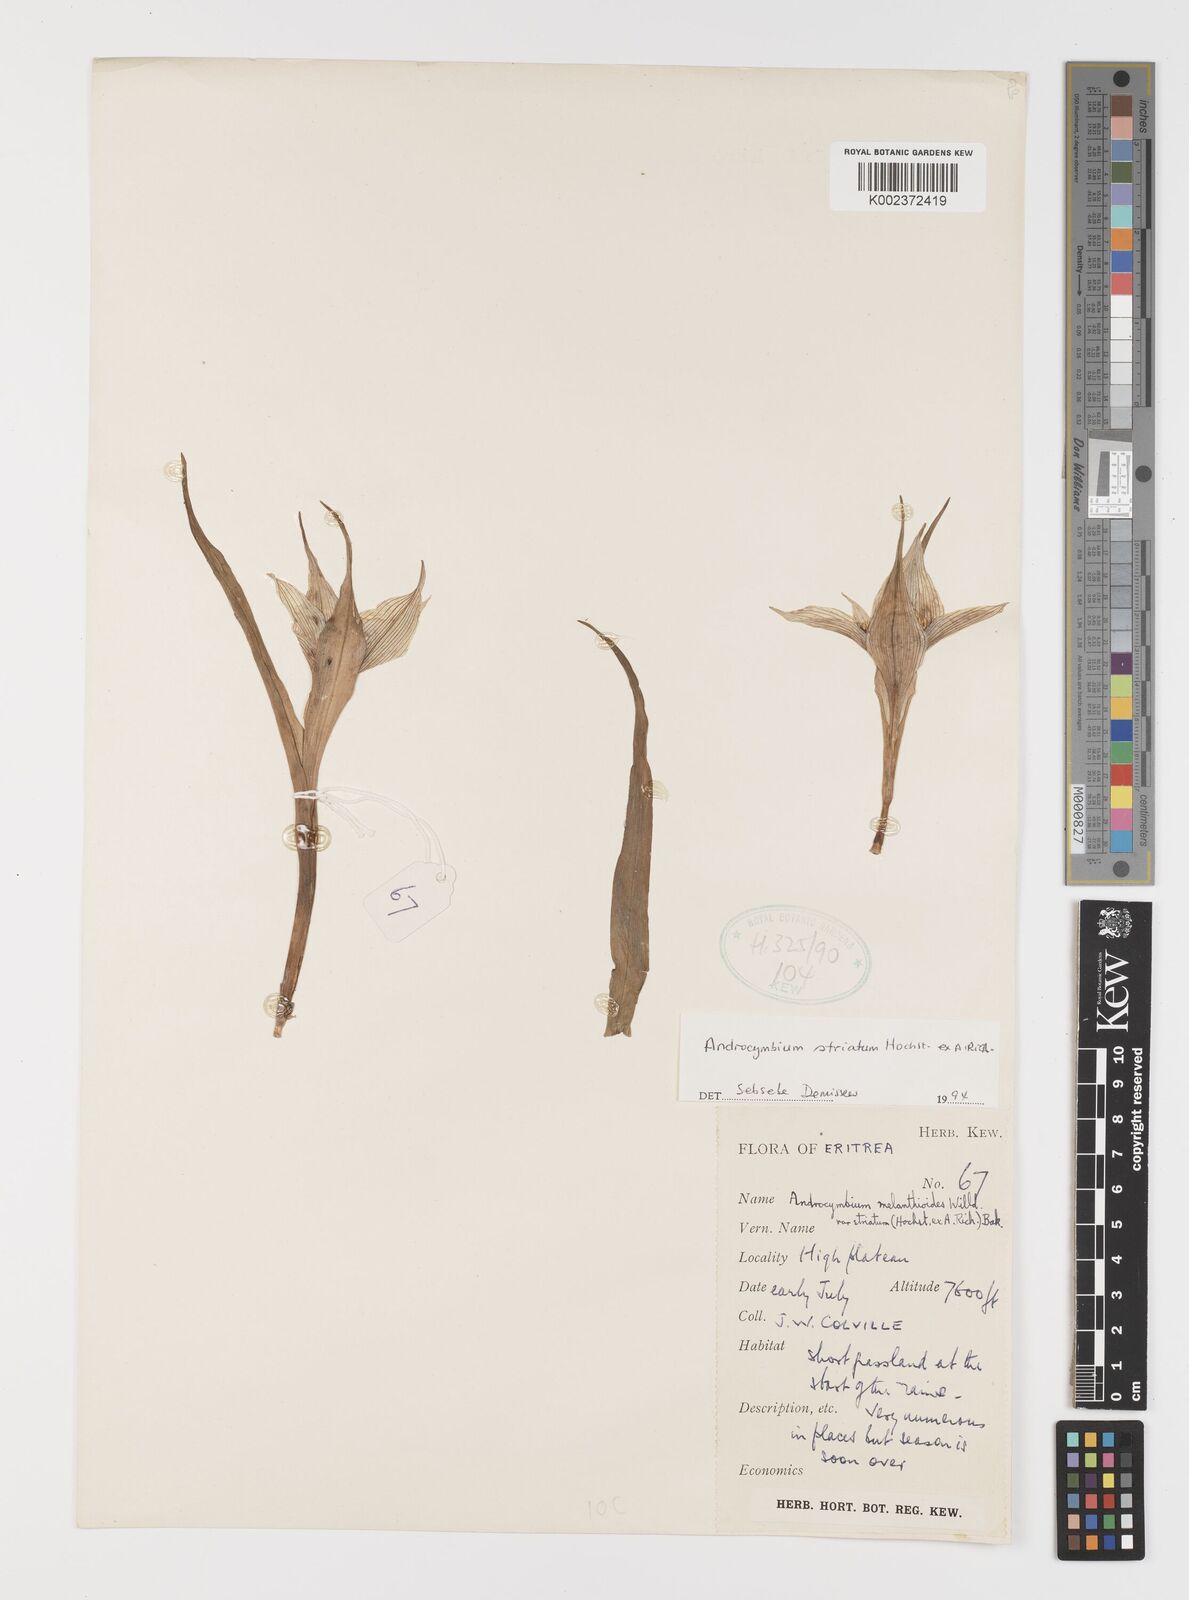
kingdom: Plantae
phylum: Tracheophyta
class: Liliopsida
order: Liliales
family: Colchicaceae
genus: Colchicum
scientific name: Colchicum striatum
